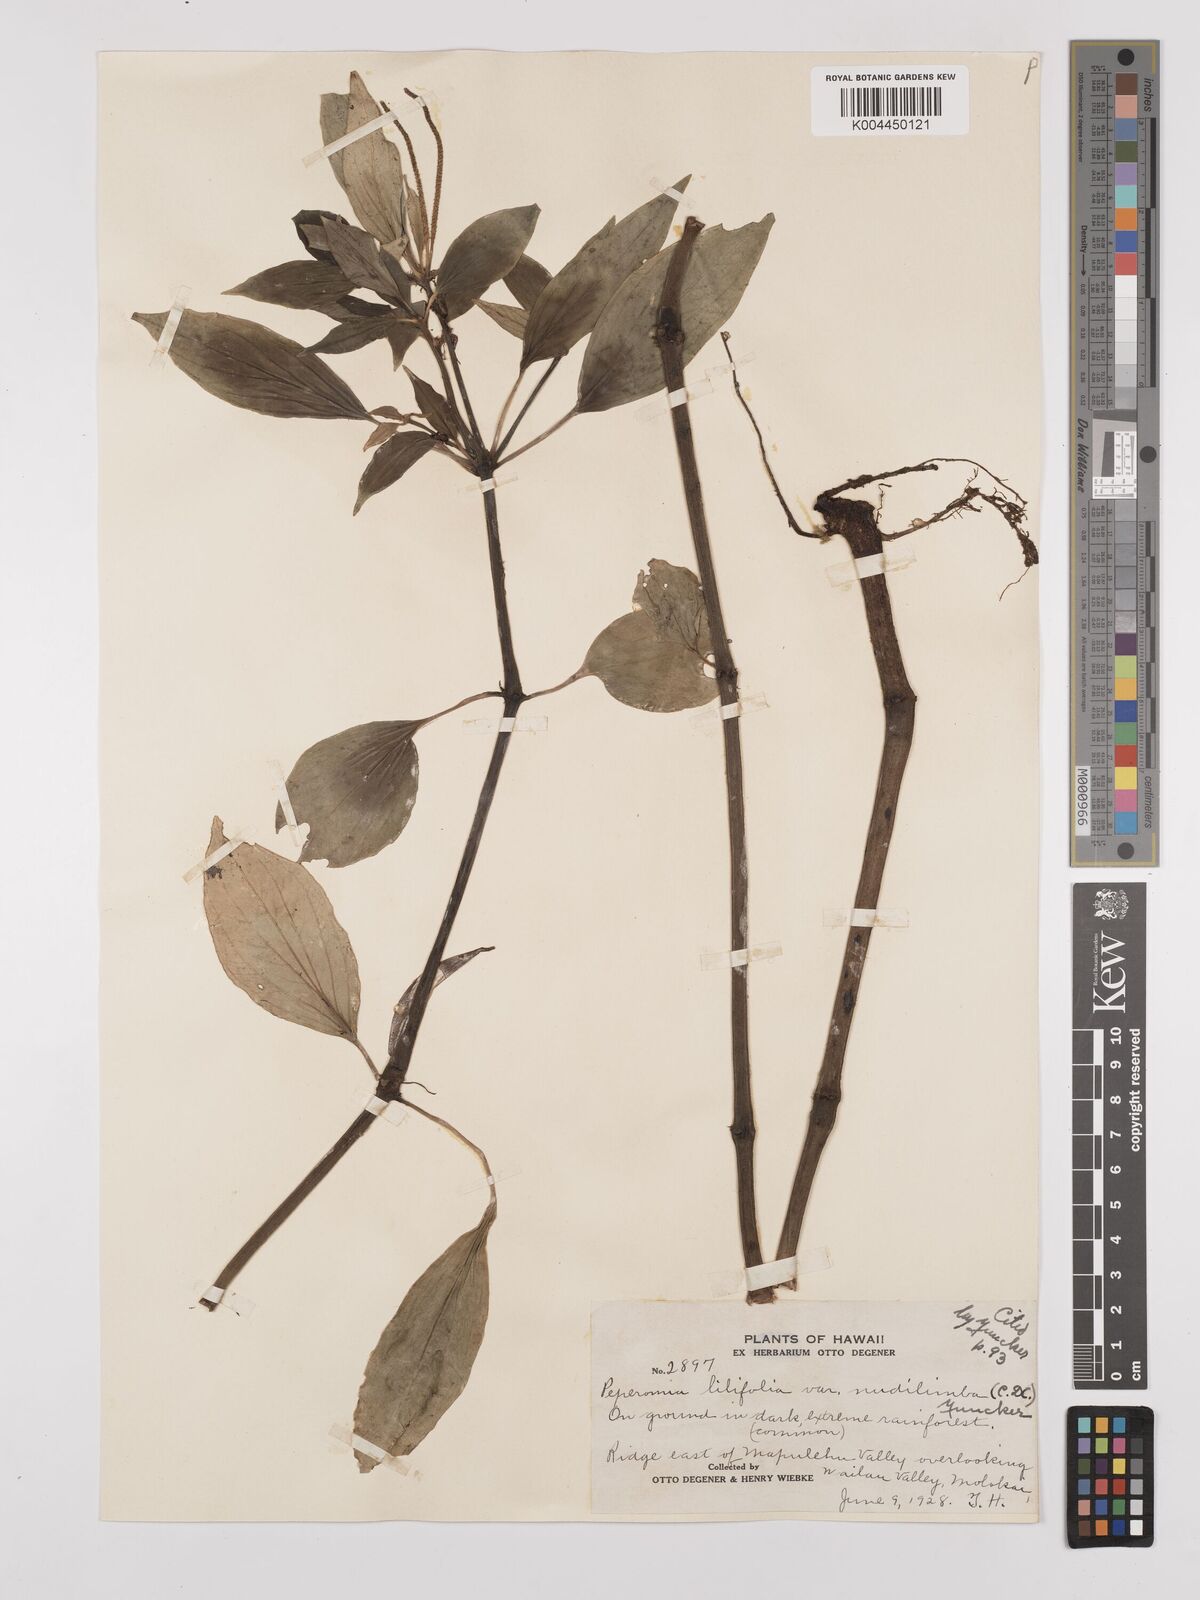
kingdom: Plantae
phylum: Tracheophyta
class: Magnoliopsida
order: Piperales
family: Piperaceae
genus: Peperomia
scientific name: Peperomia macraeana
